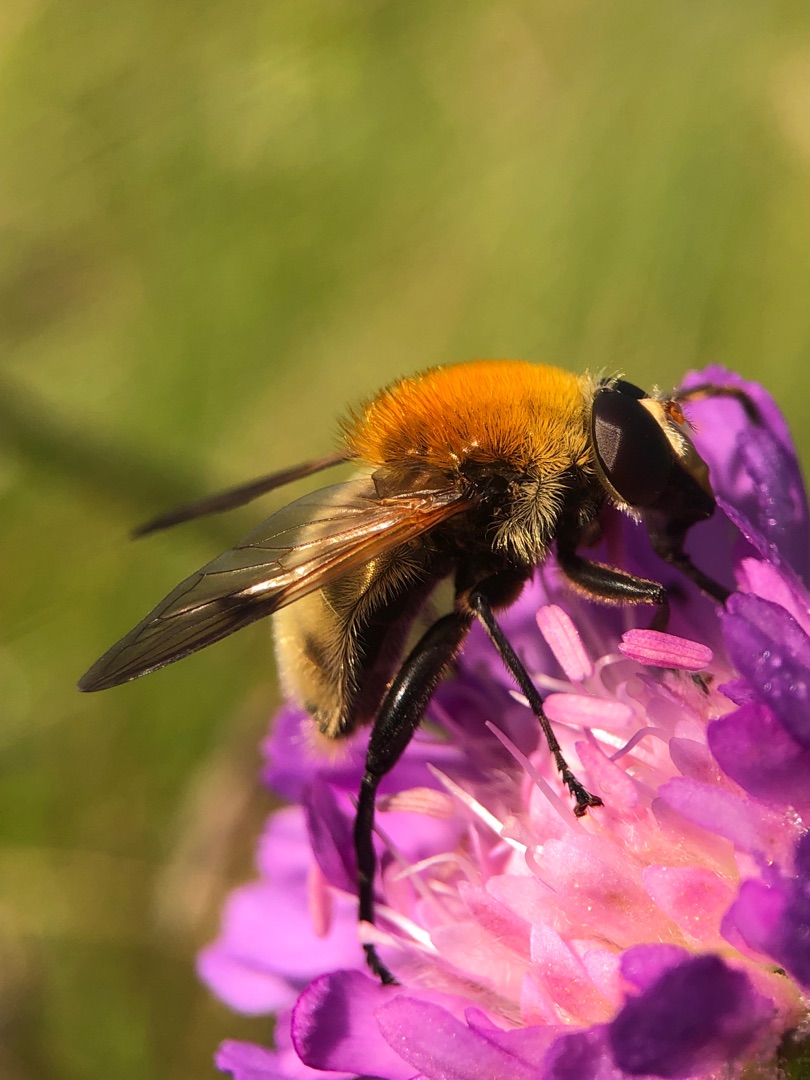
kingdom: Animalia
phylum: Arthropoda
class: Insecta
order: Diptera
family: Syrphidae
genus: Sericomyia
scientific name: Sericomyia superbiens
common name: Brun bjørnesvirreflue
